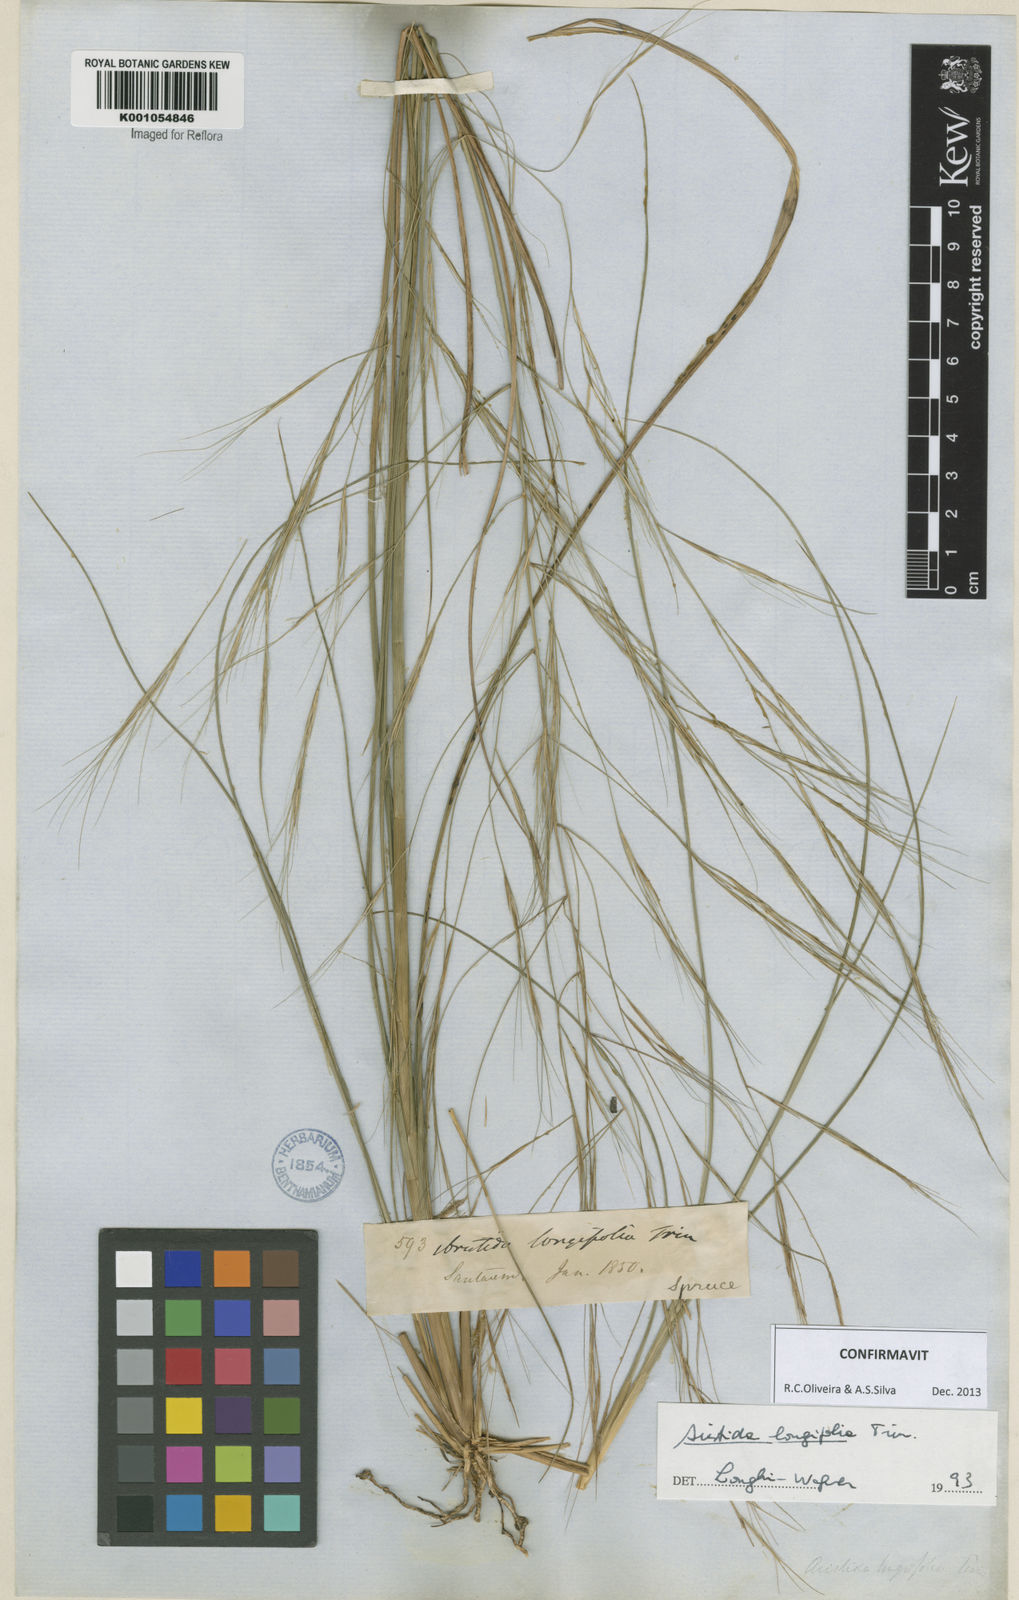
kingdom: Plantae
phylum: Tracheophyta
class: Liliopsida
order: Poales
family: Poaceae
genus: Aristida
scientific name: Aristida longifolia
